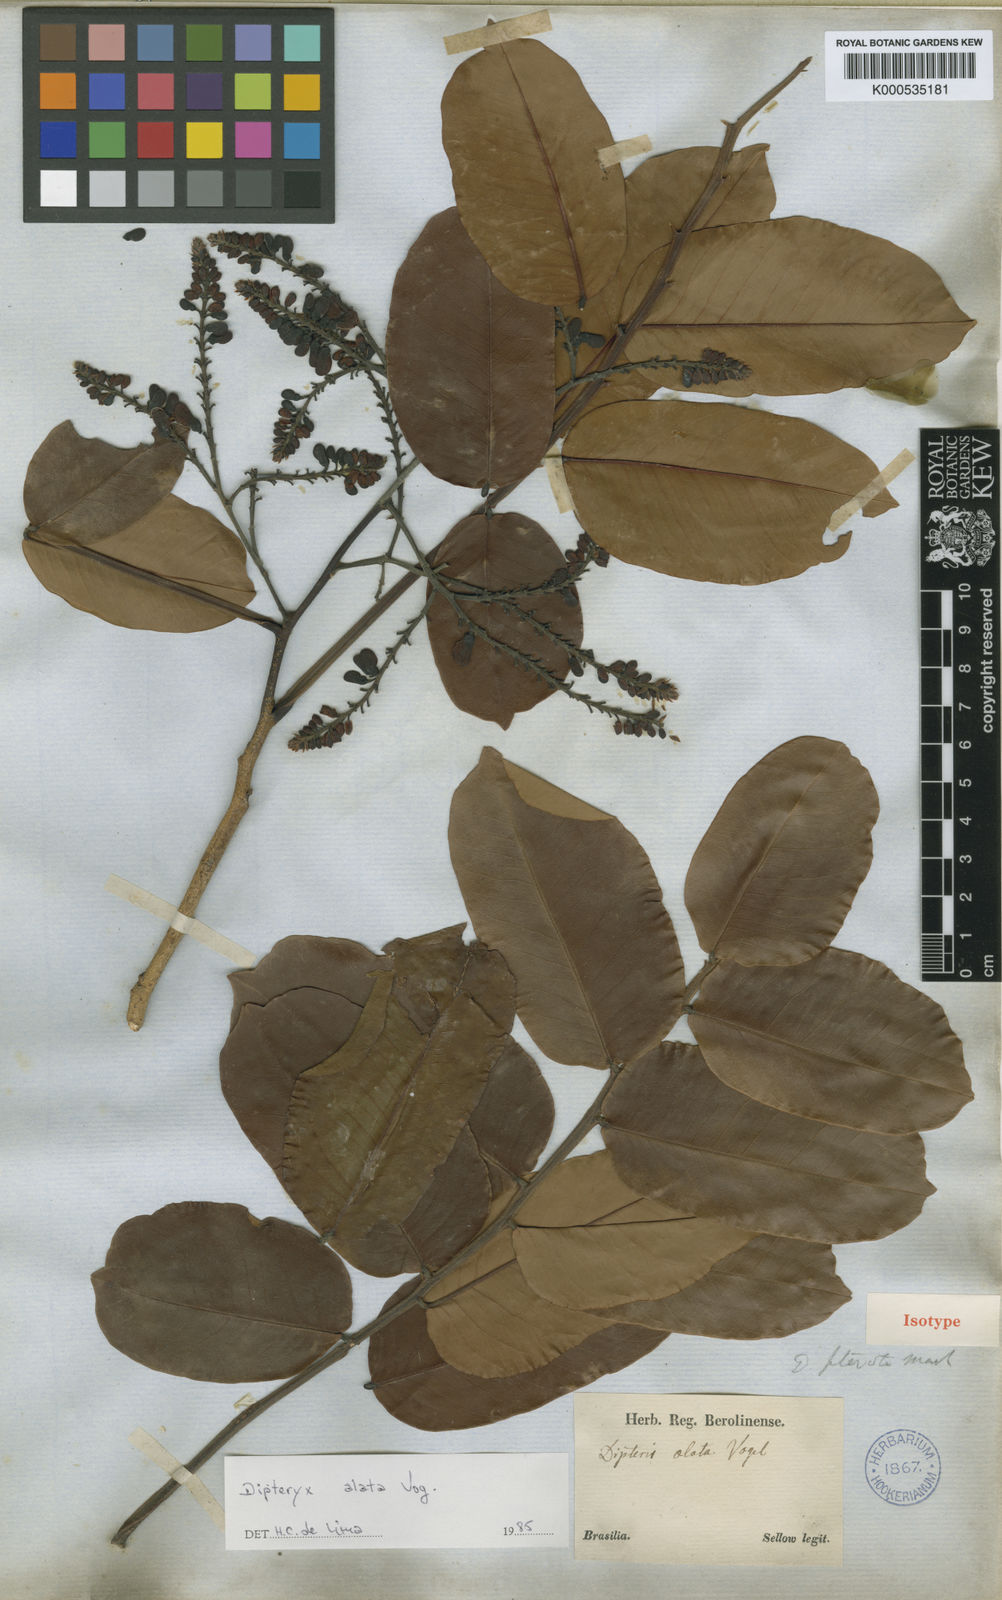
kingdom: Plantae
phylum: Tracheophyta
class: Magnoliopsida
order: Fabales
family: Fabaceae
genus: Dipteryx
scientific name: Dipteryx alata
